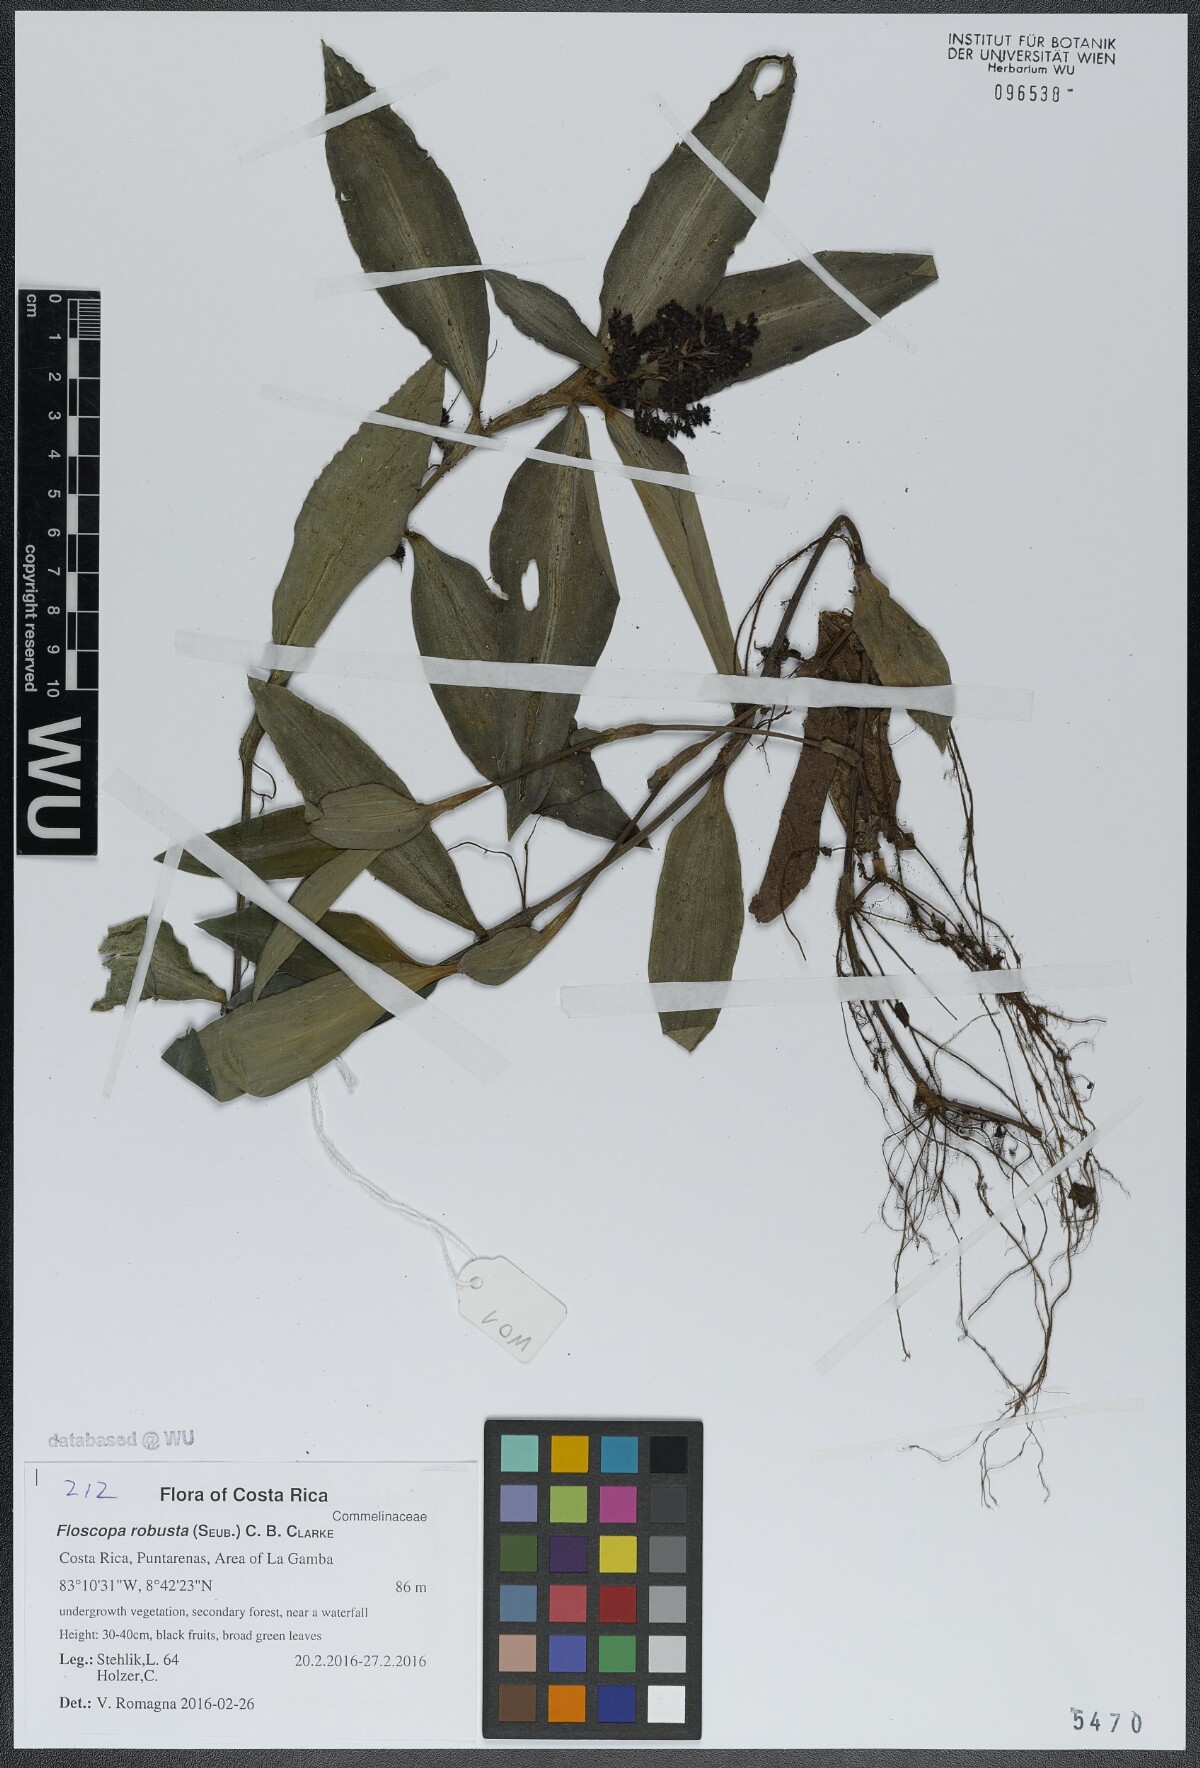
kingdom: Plantae
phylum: Tracheophyta
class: Liliopsida
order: Commelinales
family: Commelinaceae
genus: Floscopa
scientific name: Floscopa robusta
